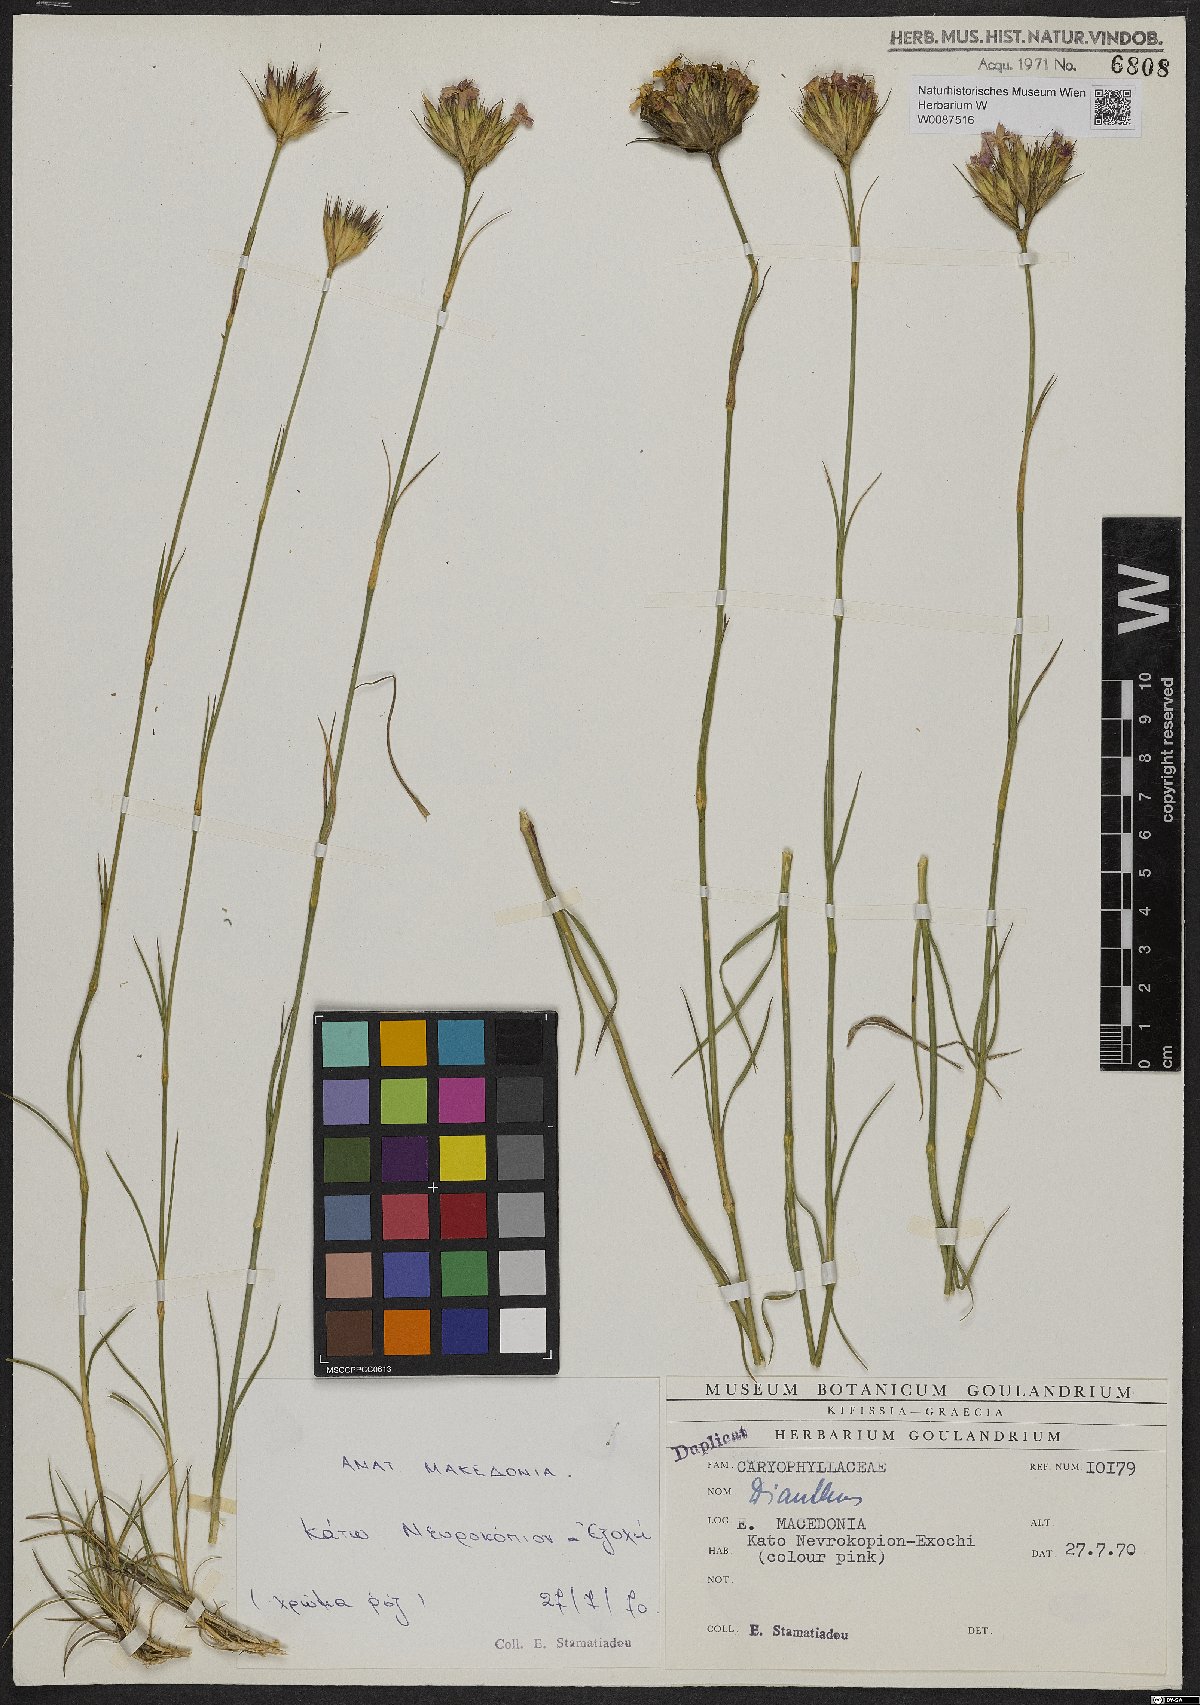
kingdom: Plantae
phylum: Tracheophyta
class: Magnoliopsida
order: Caryophyllales
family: Caryophyllaceae
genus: Dianthus
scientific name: Dianthus
